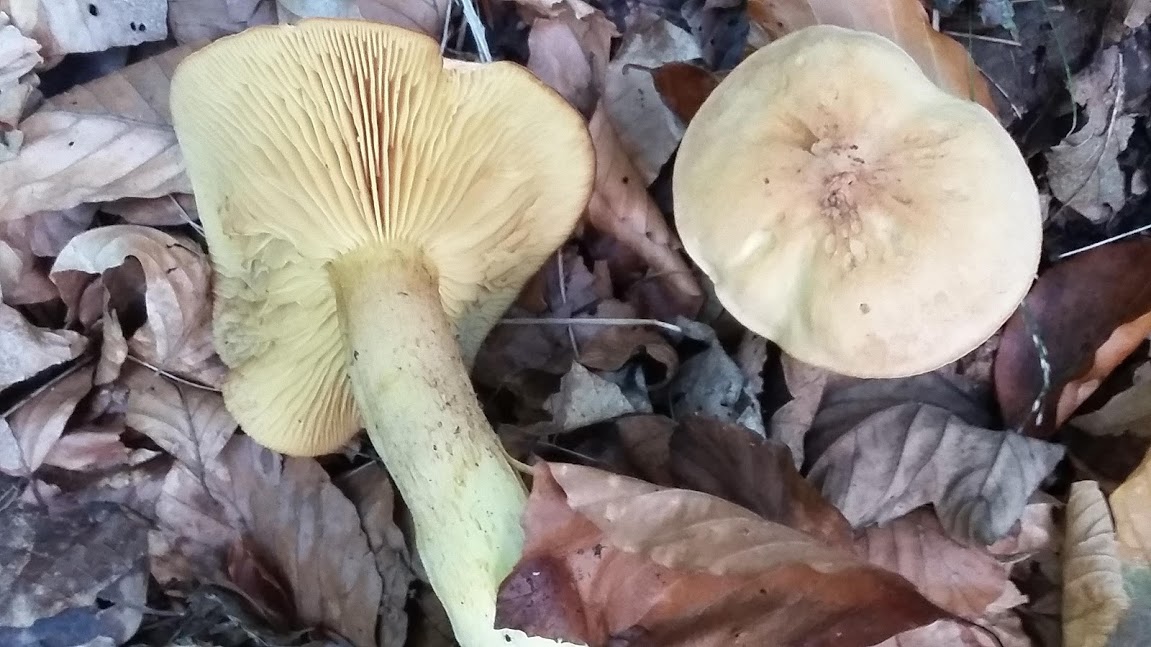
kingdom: Fungi
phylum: Basidiomycota
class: Agaricomycetes
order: Agaricales
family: Tricholomataceae
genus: Tricholoma
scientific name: Tricholoma sulphureum
